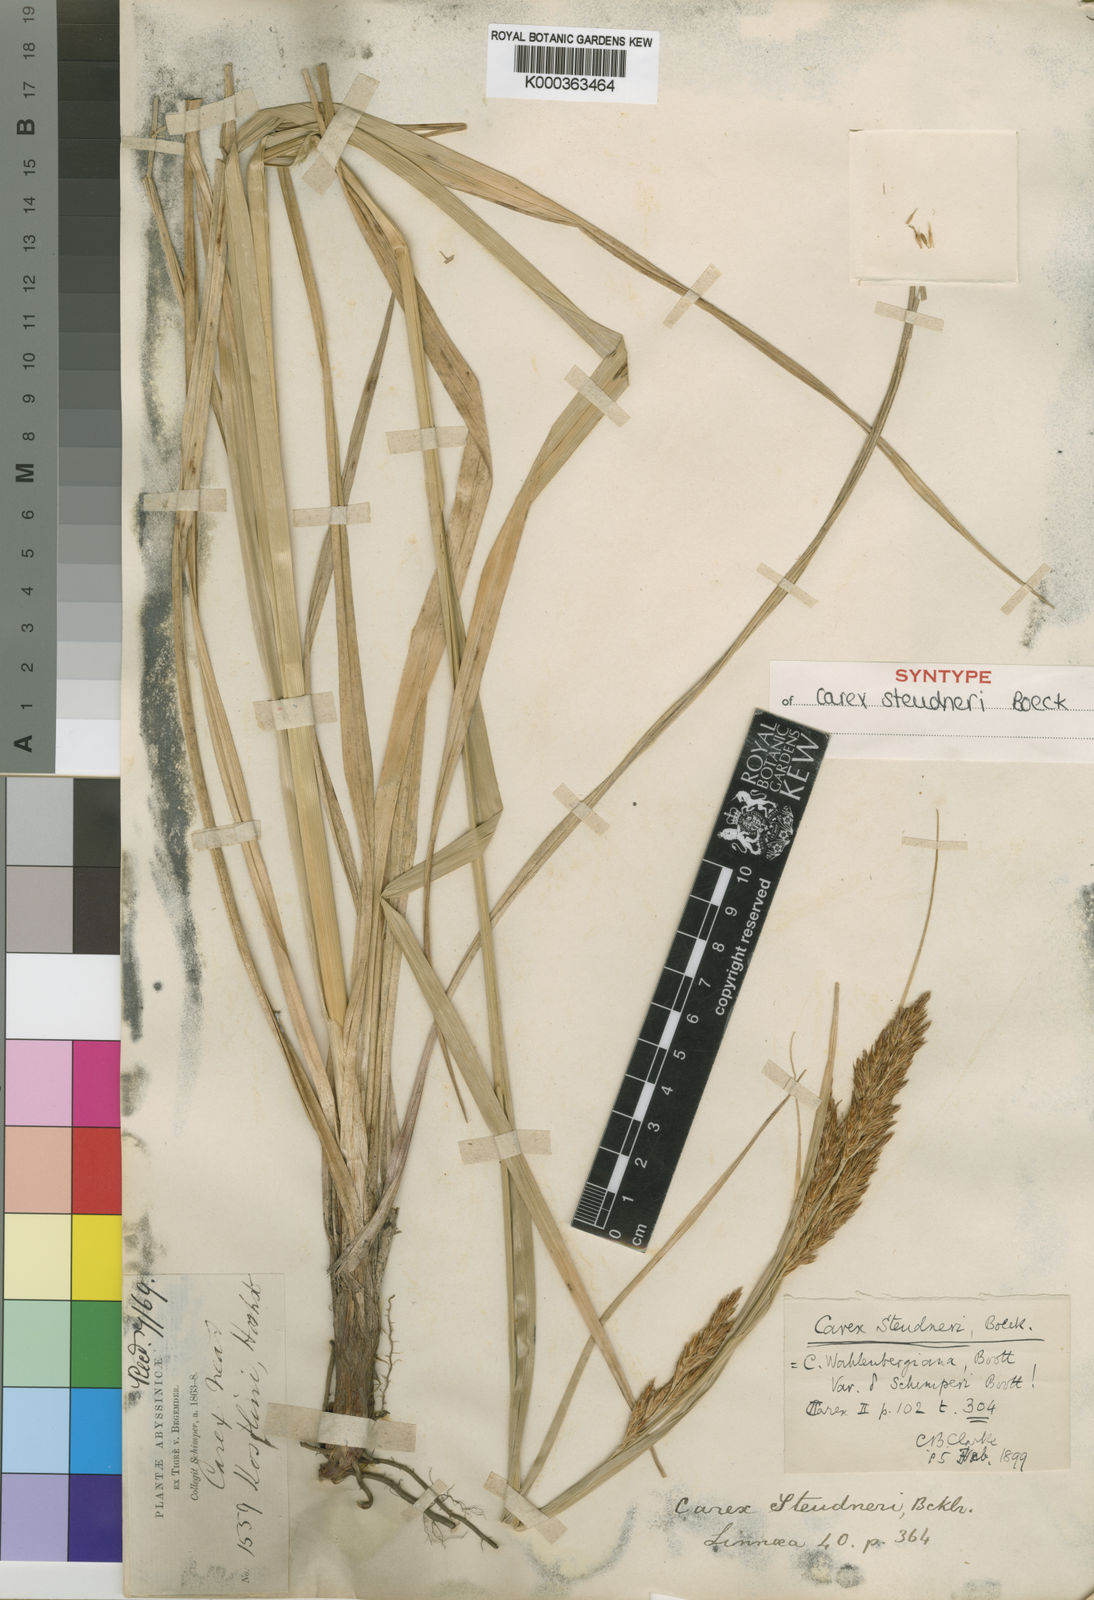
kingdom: Plantae
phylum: Tracheophyta
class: Liliopsida
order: Poales
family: Cyperaceae
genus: Carex
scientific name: Carex steudneri
